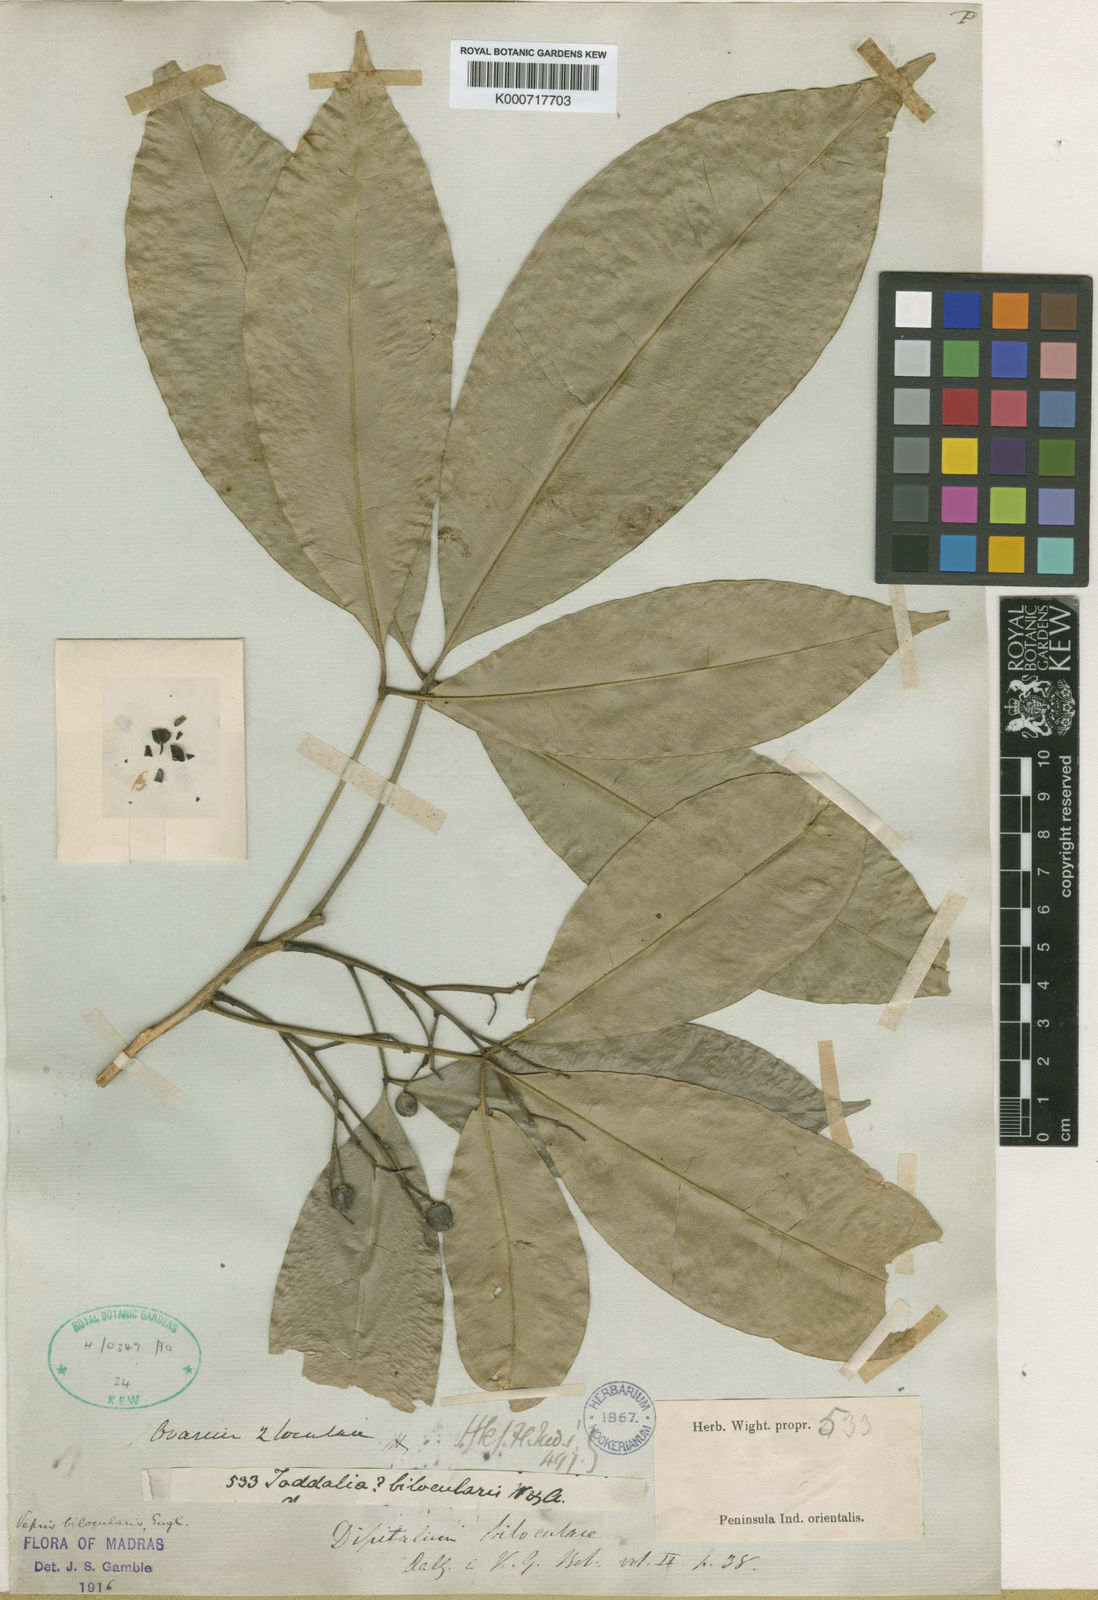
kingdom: Plantae
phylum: Tracheophyta
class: Magnoliopsida
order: Sapindales
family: Rutaceae
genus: Vepris
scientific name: Vepris bilocularis
